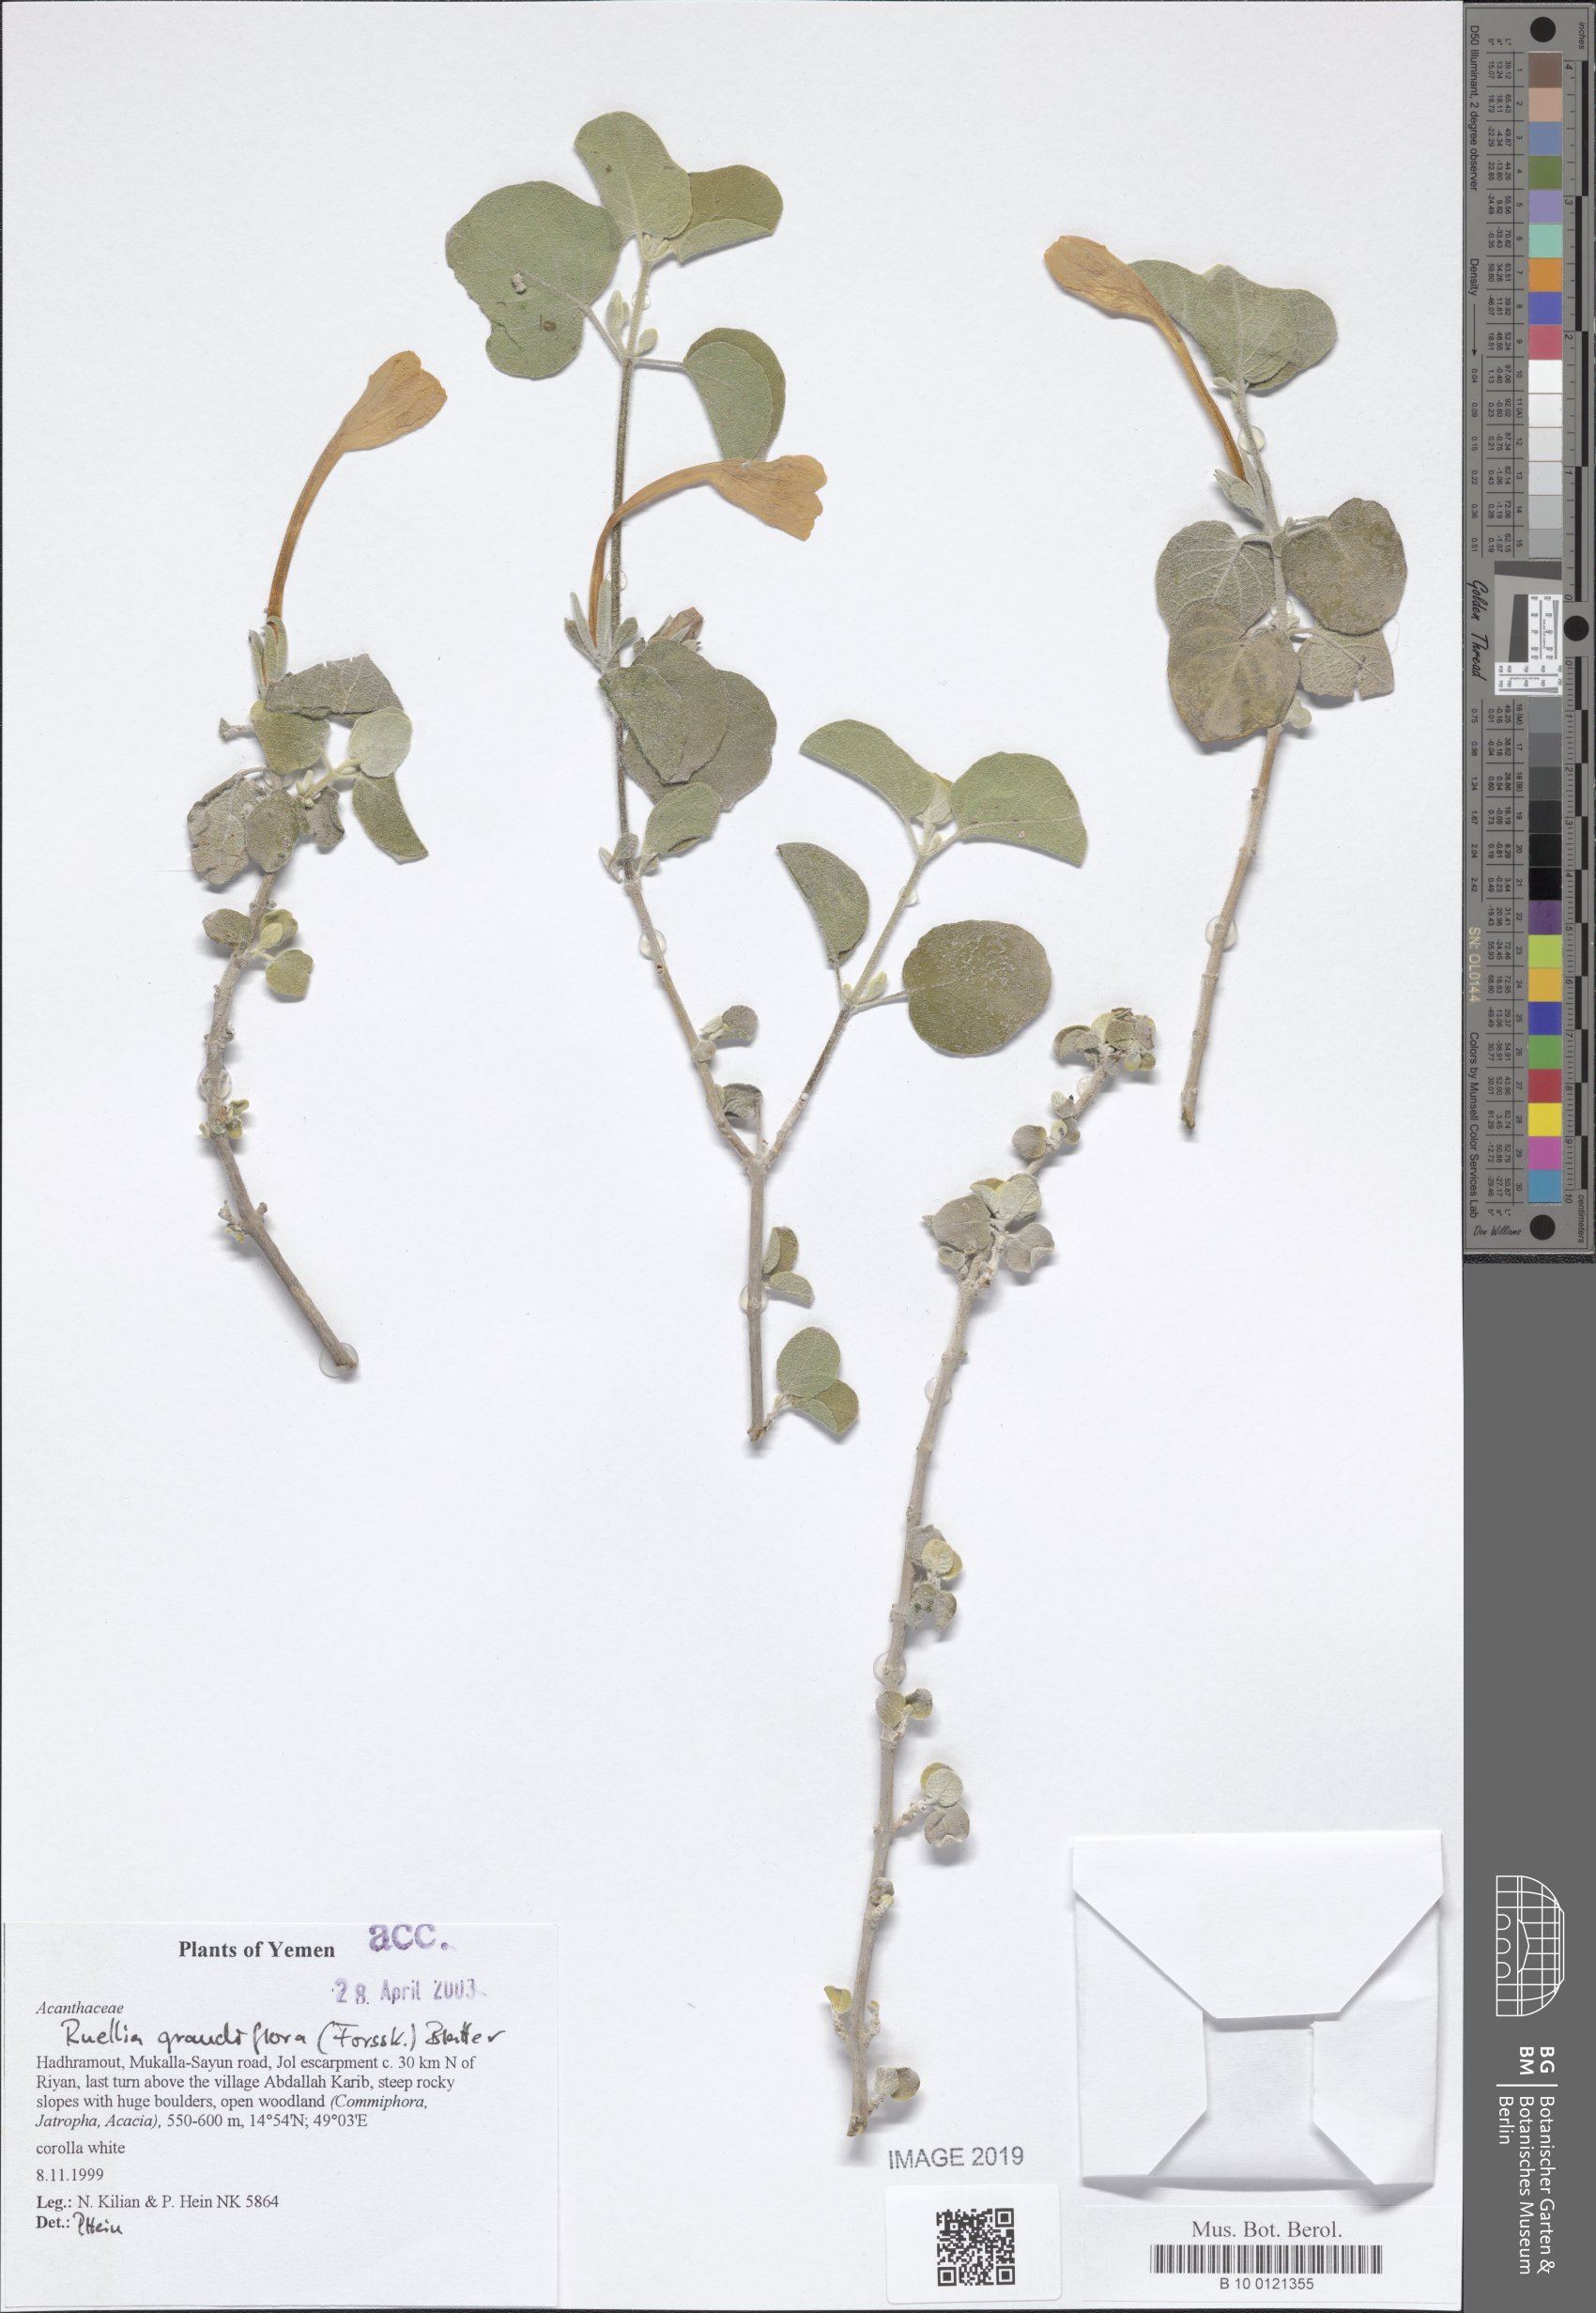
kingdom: Plantae
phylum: Tracheophyta
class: Magnoliopsida
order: Lamiales
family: Acanthaceae
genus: Ruellia
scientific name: Ruellia grandiflora
